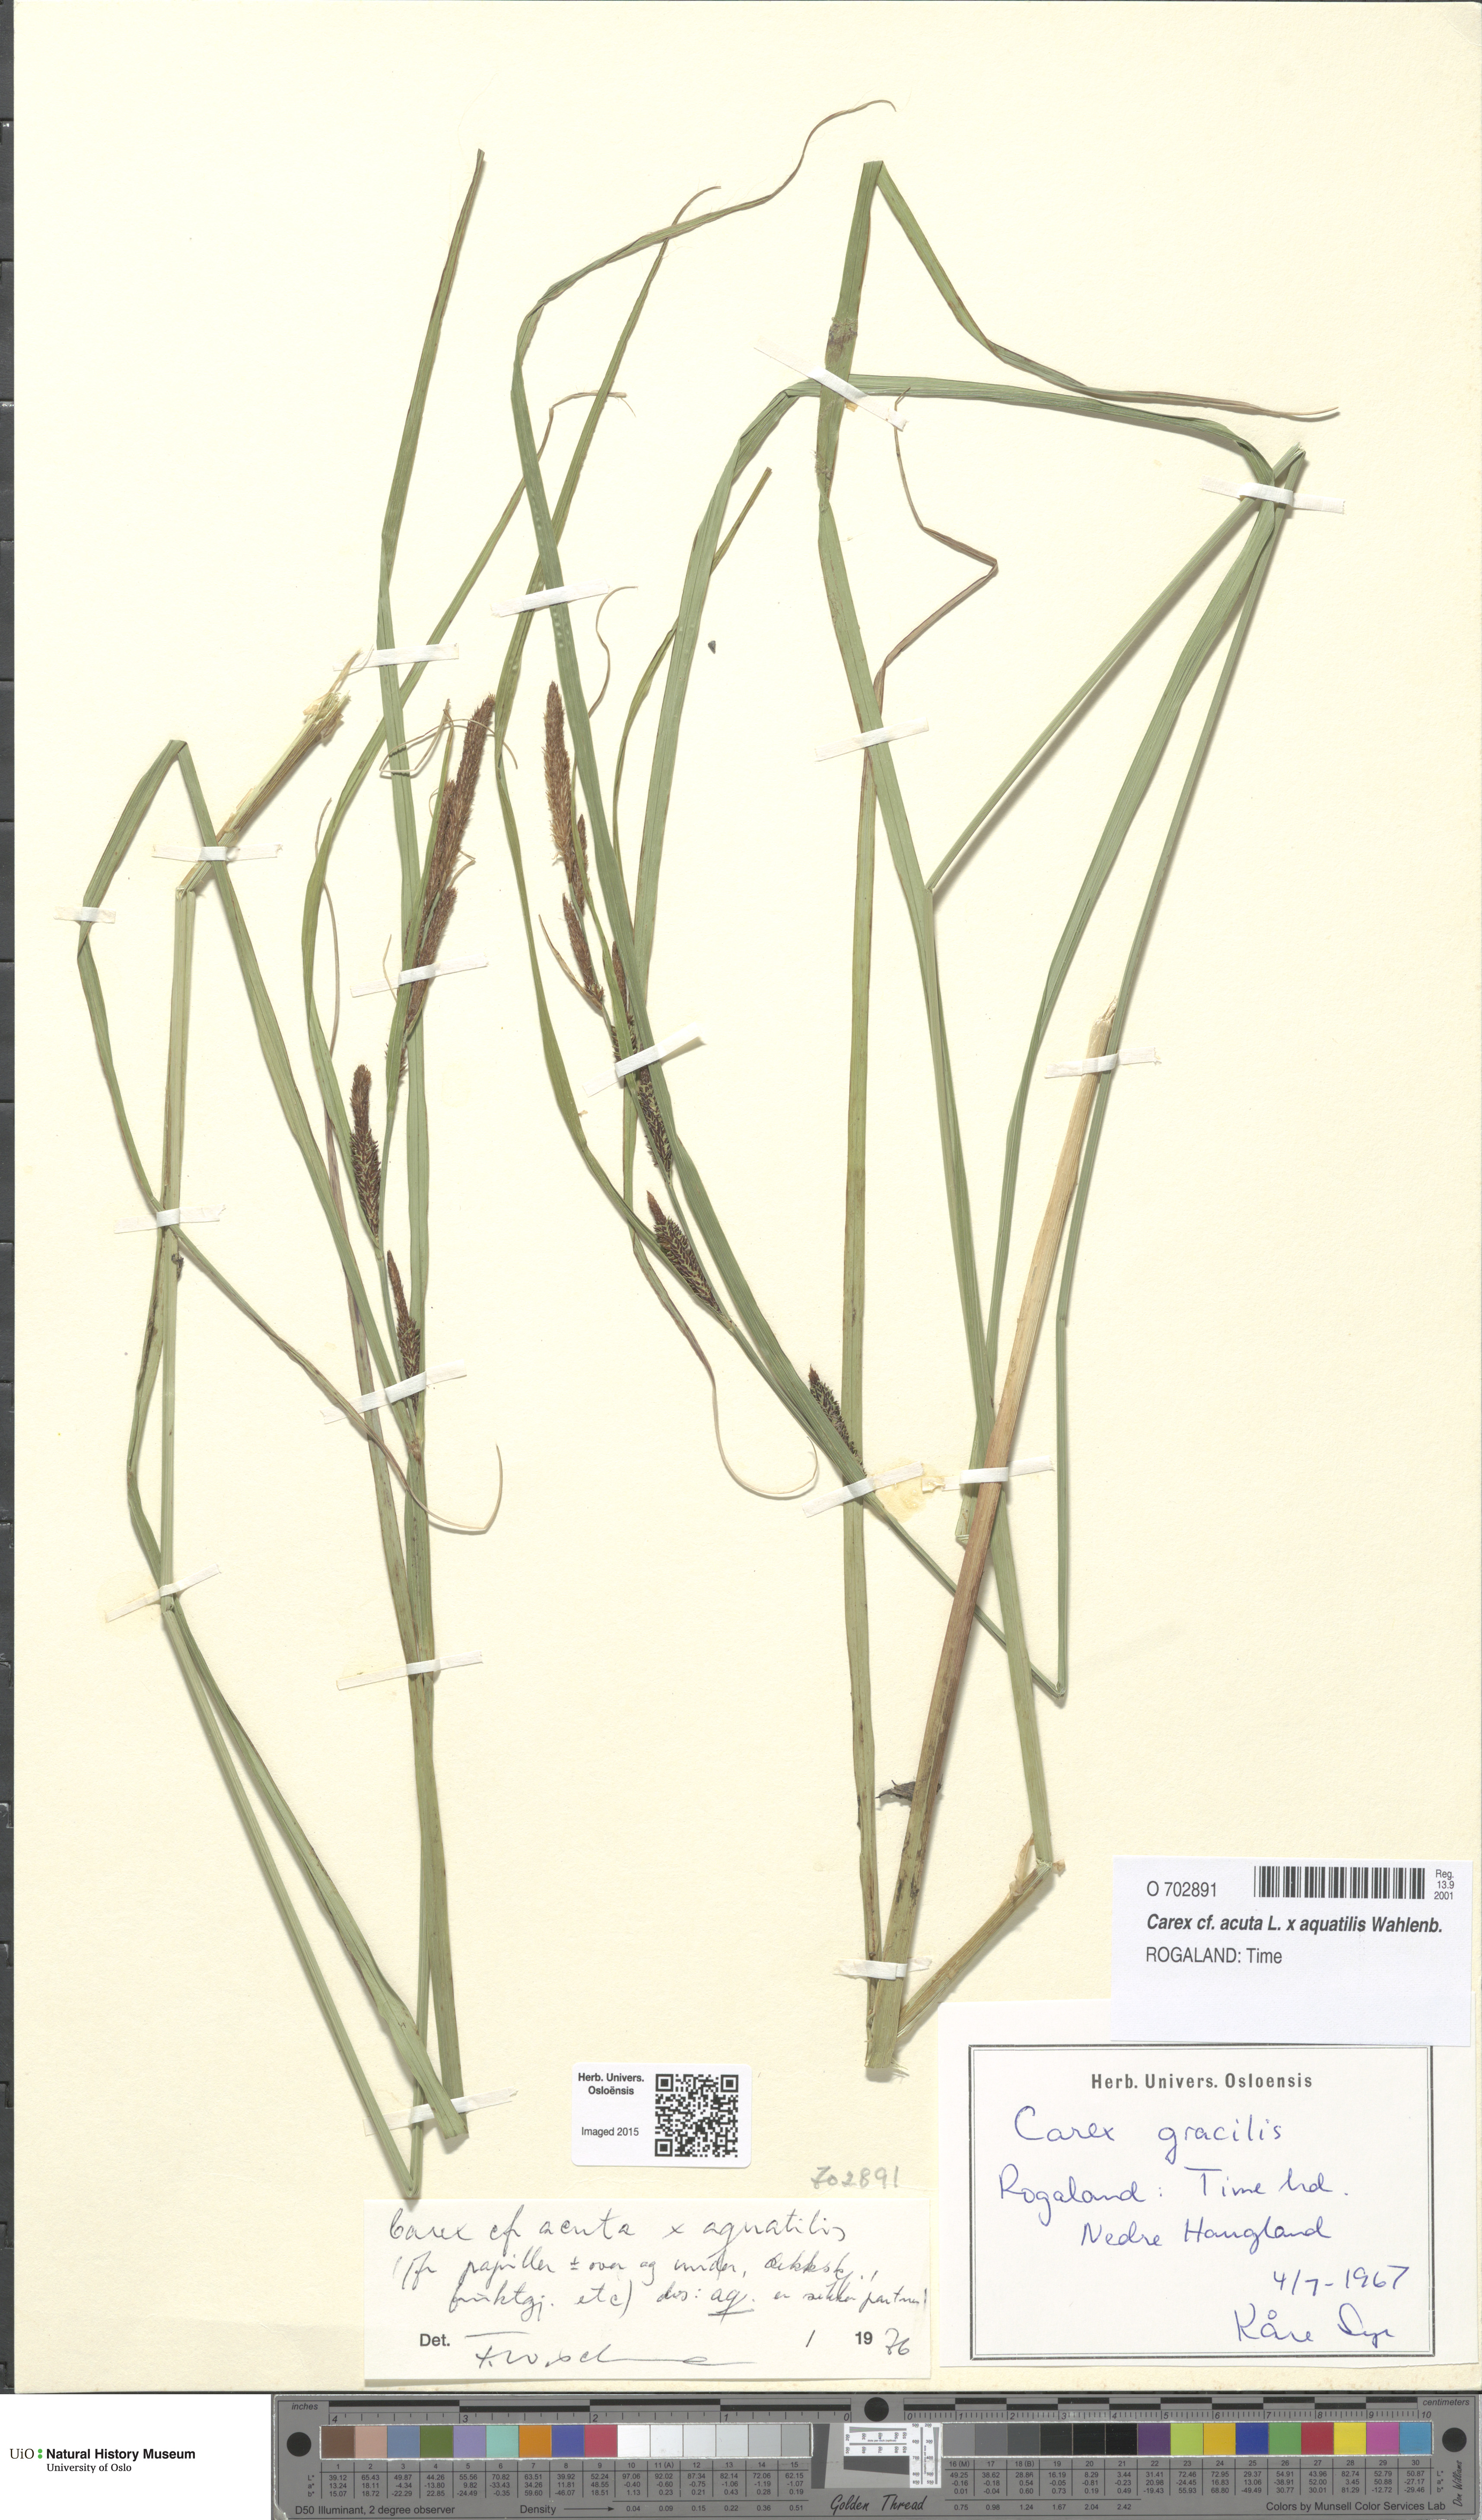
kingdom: Plantae
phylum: Tracheophyta
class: Liliopsida
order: Poales
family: Cyperaceae
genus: Carex
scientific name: Carex
